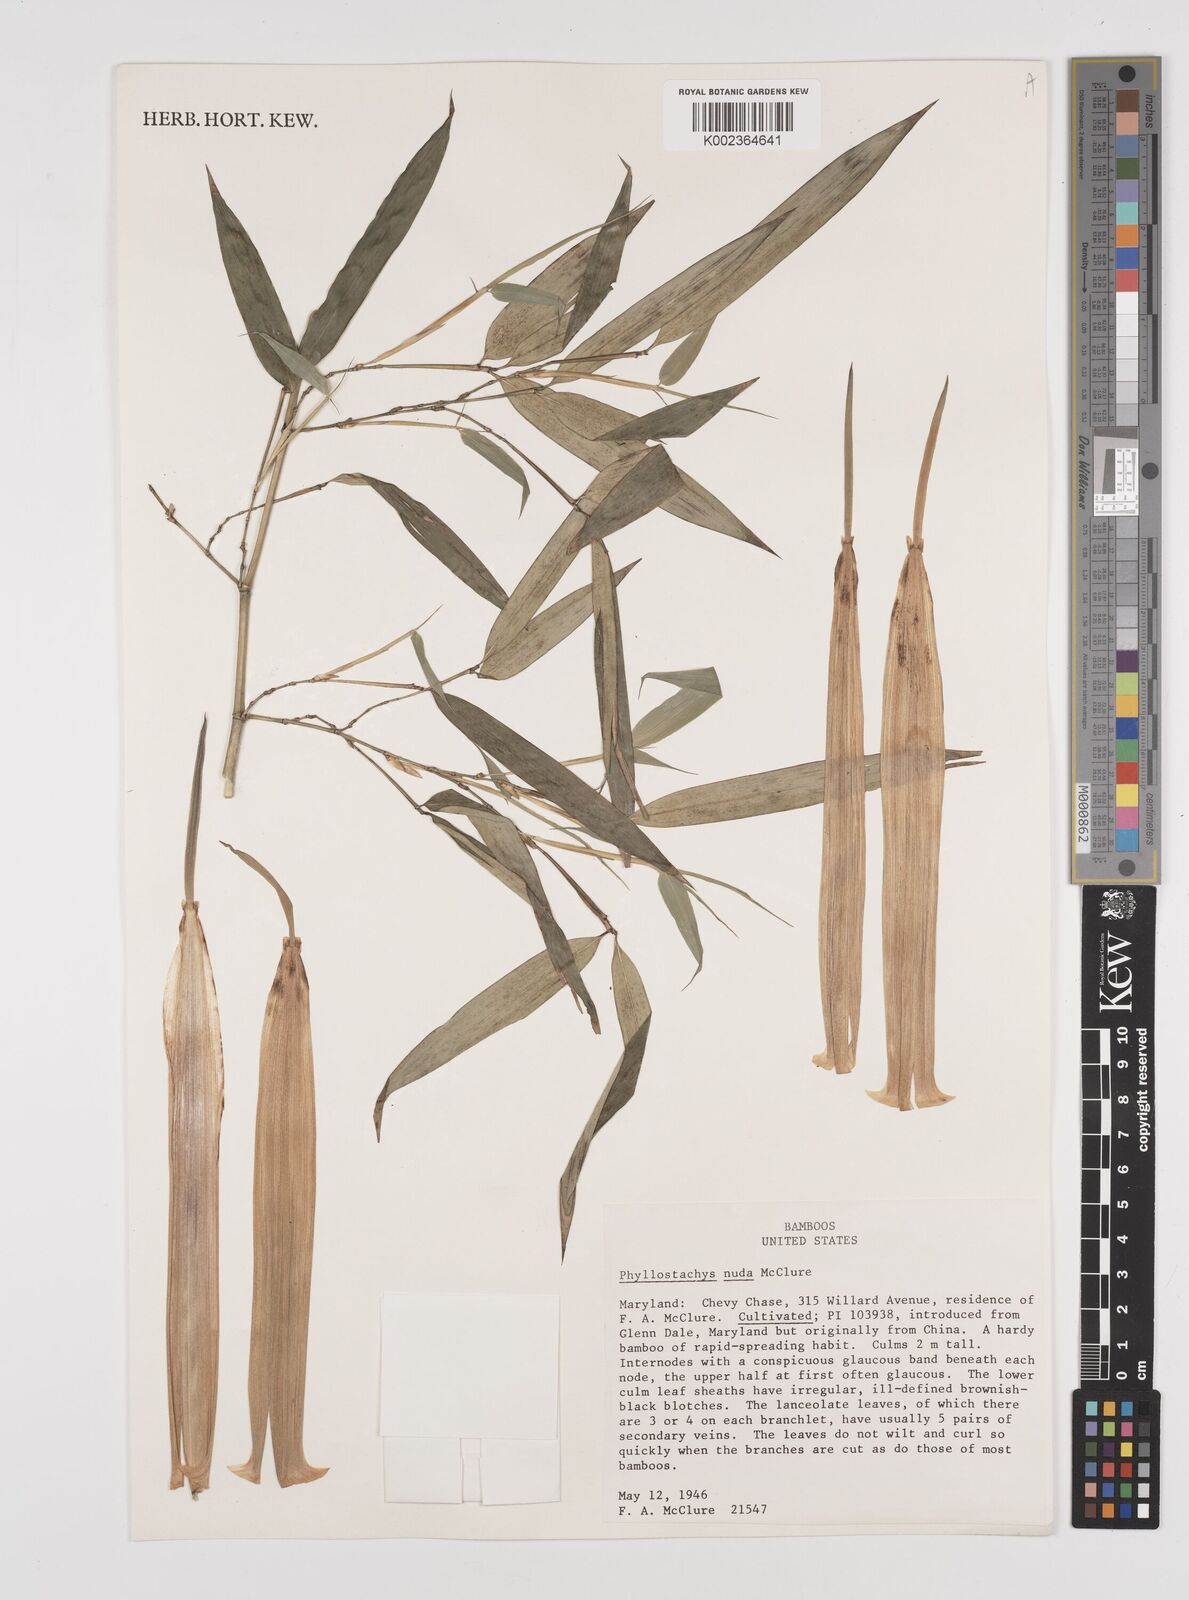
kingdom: Plantae
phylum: Tracheophyta
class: Liliopsida
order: Poales
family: Poaceae
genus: Phyllostachys
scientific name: Phyllostachys nuda
